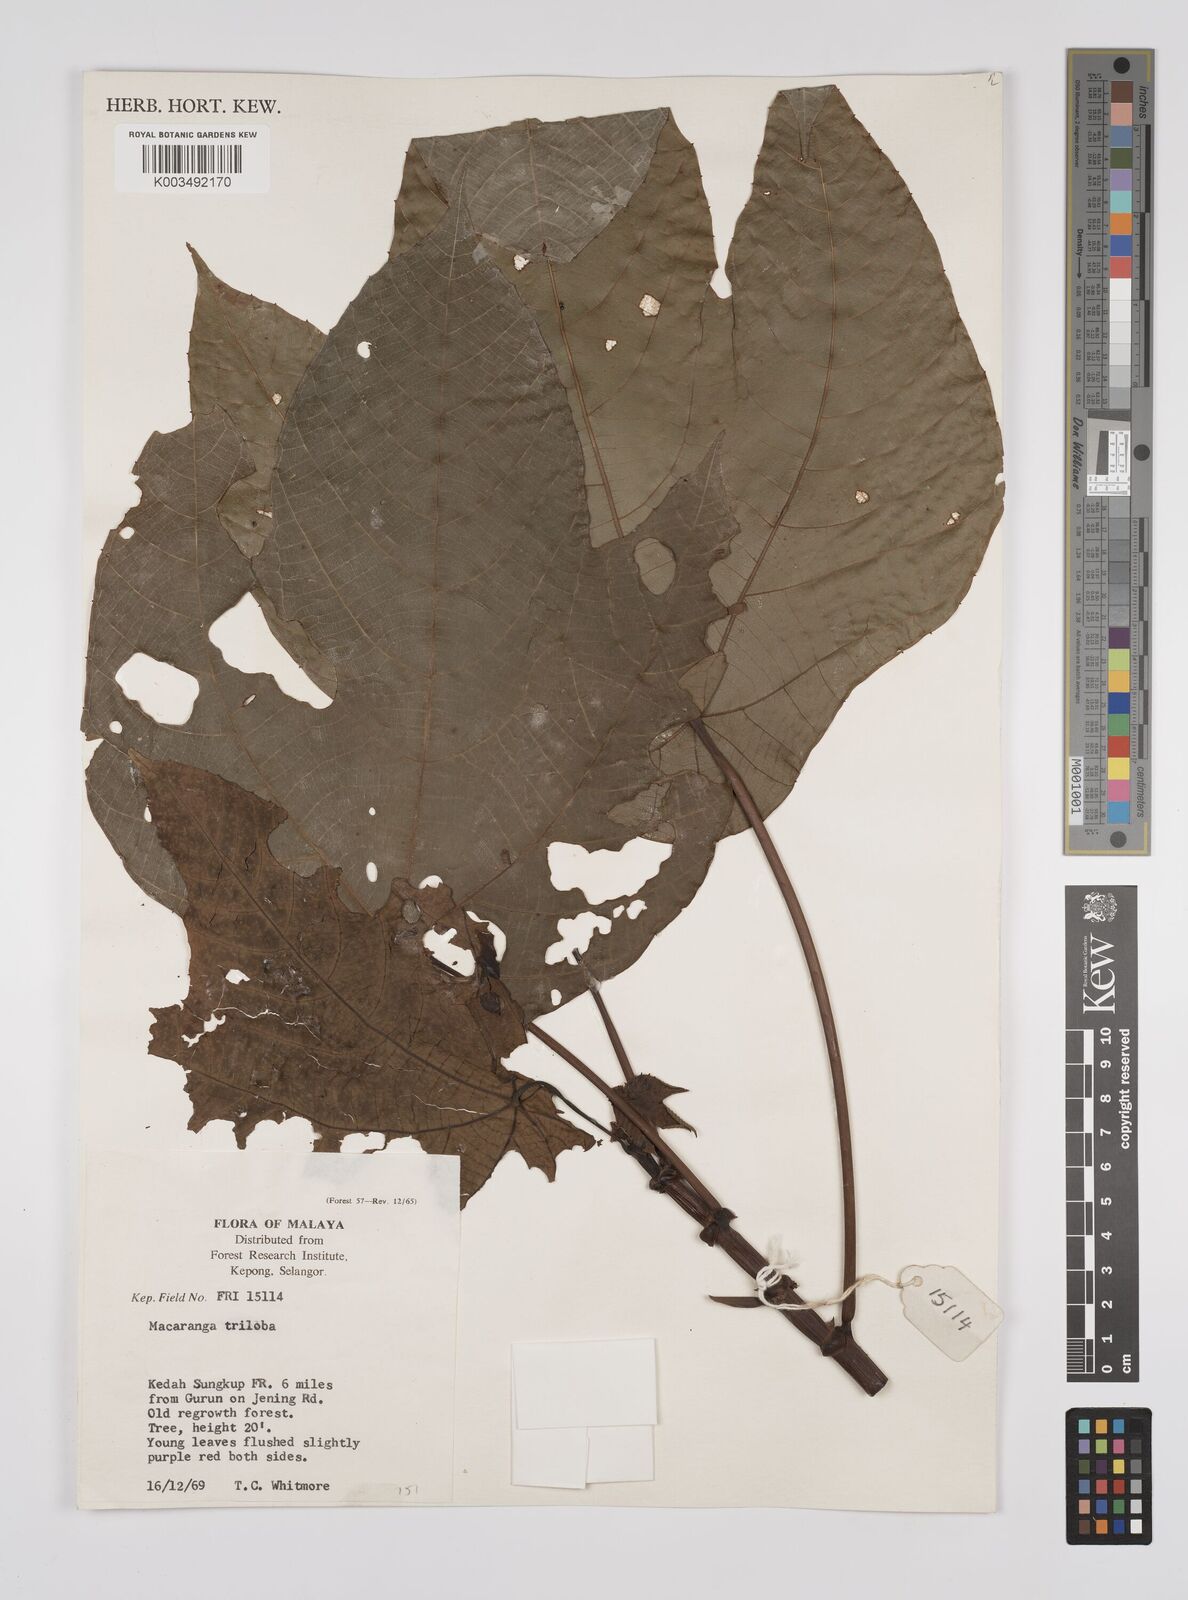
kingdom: Plantae
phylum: Tracheophyta
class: Magnoliopsida
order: Malpighiales
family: Euphorbiaceae
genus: Macaranga
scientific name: Macaranga triloba
